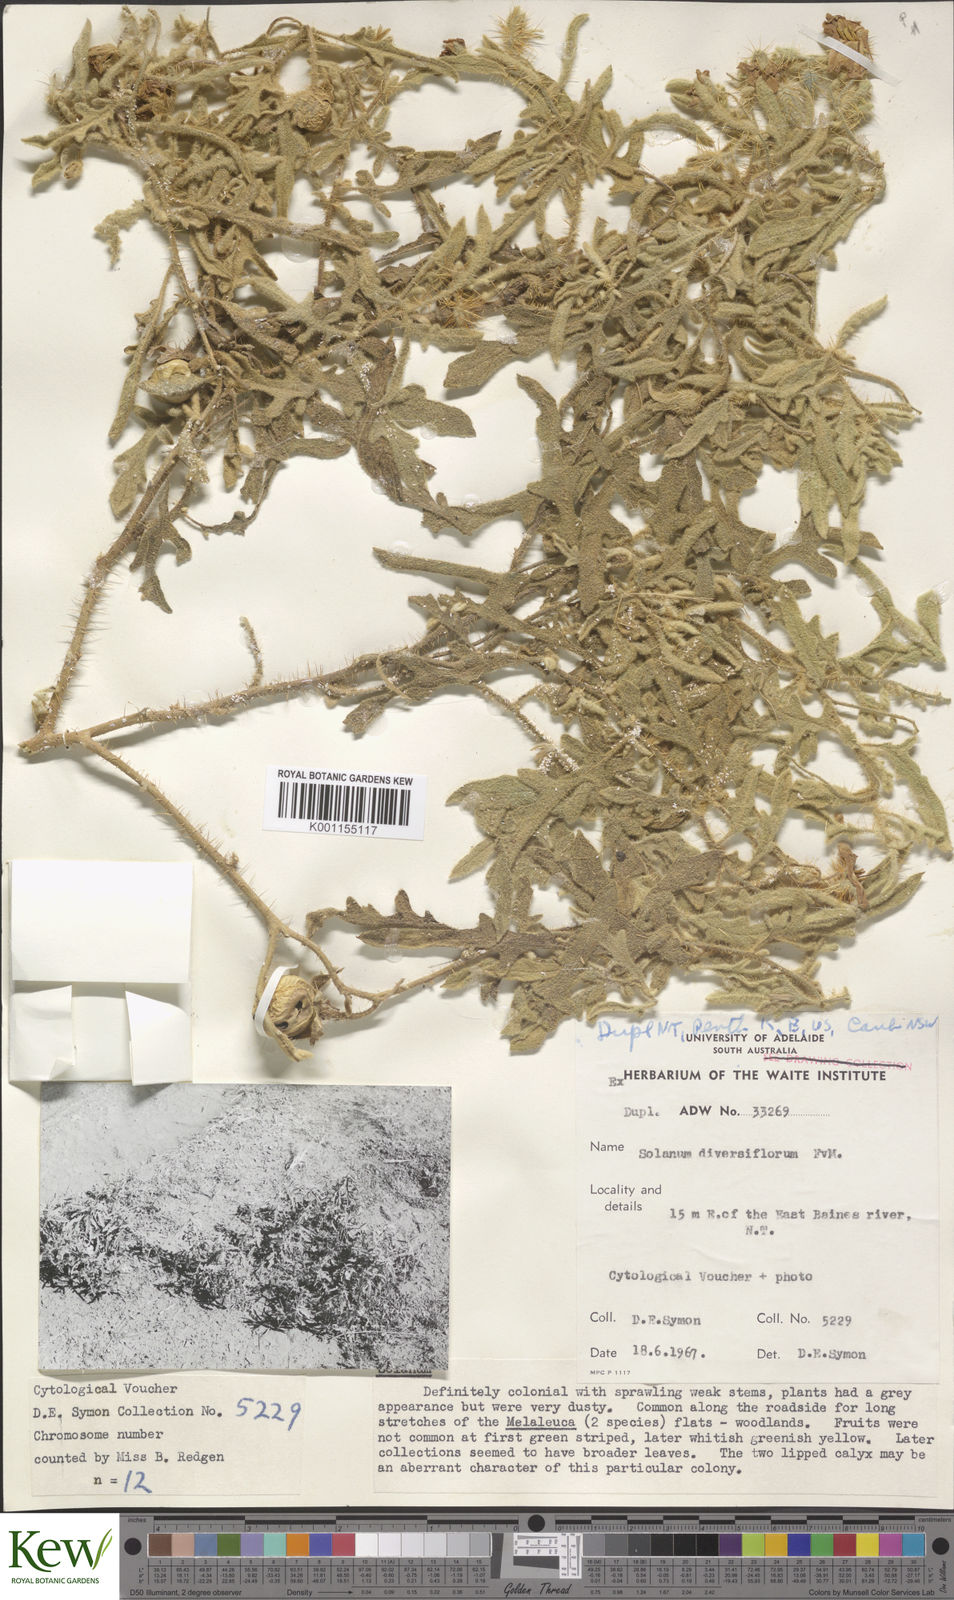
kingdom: Plantae
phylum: Tracheophyta
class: Magnoliopsida
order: Solanales
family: Solanaceae
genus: Solanum
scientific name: Solanum eburneum
